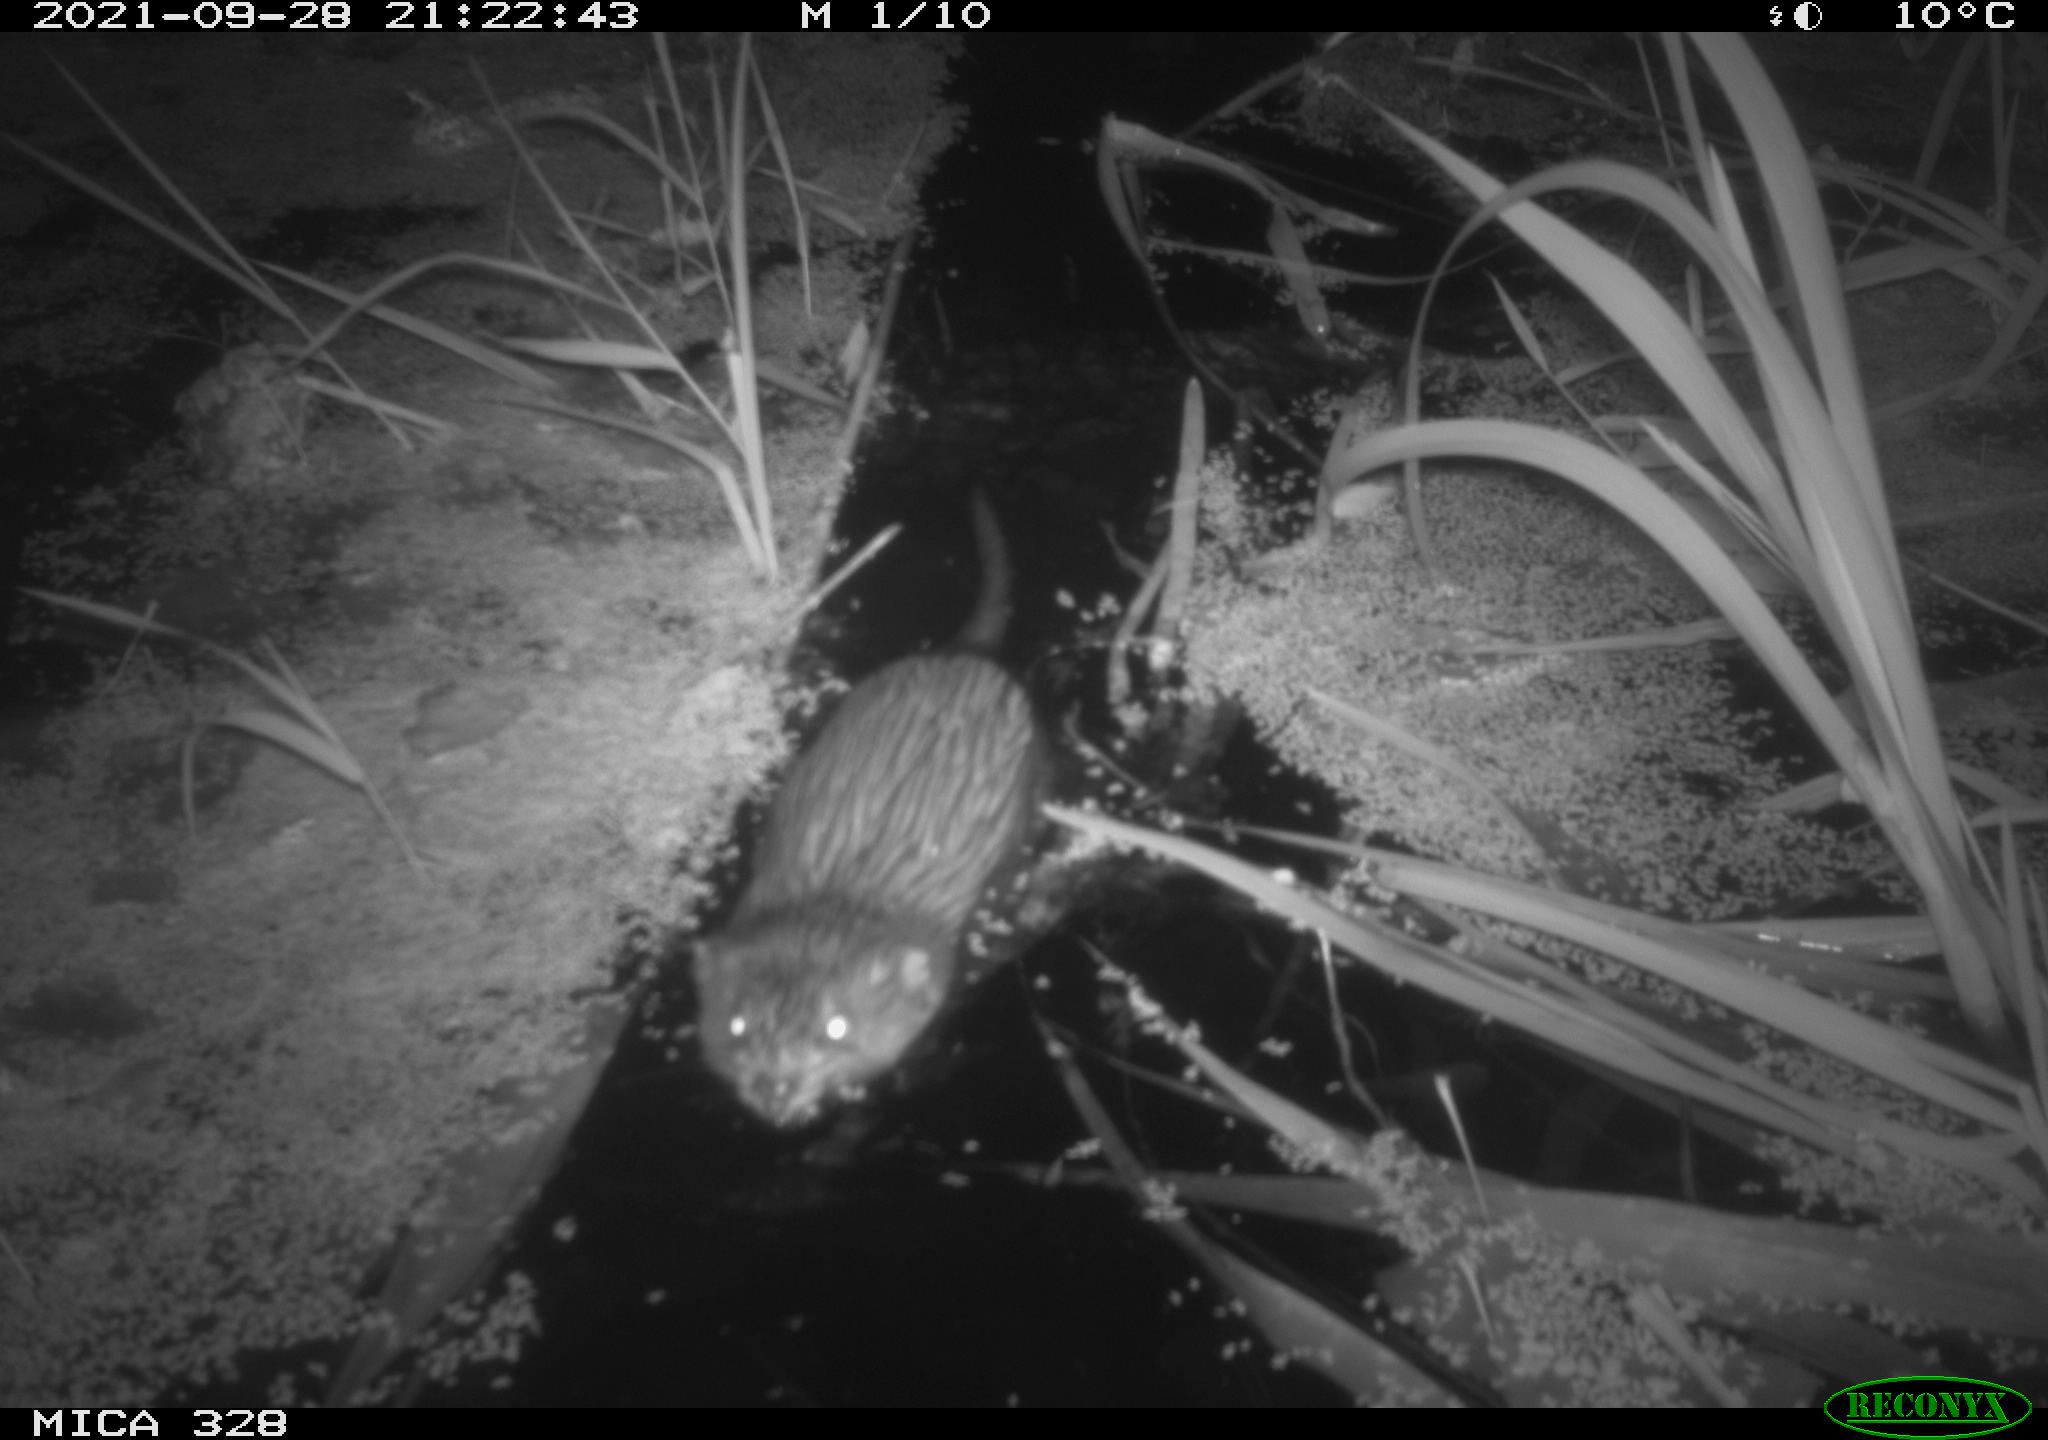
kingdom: Animalia
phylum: Chordata
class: Mammalia
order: Rodentia
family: Cricetidae
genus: Ondatra
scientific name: Ondatra zibethicus
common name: Muskrat
